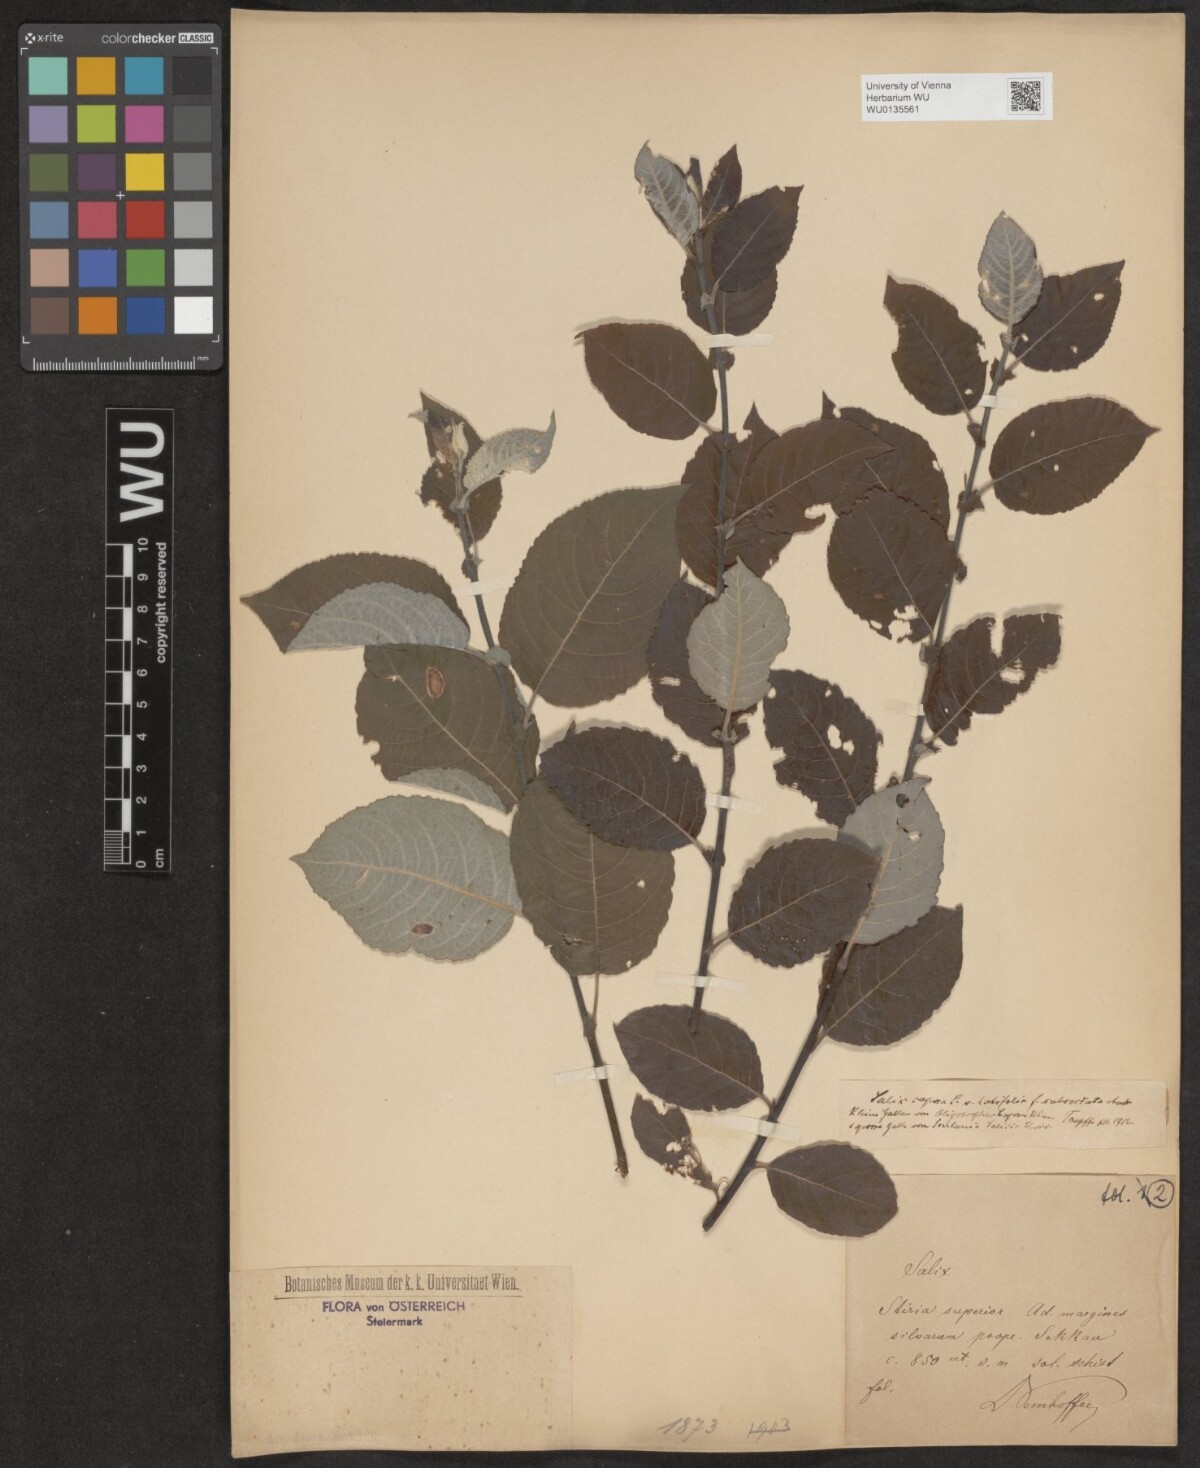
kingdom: Plantae
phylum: Tracheophyta
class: Magnoliopsida
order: Malpighiales
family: Salicaceae
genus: Salix
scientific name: Salix caprea
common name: Goat willow
